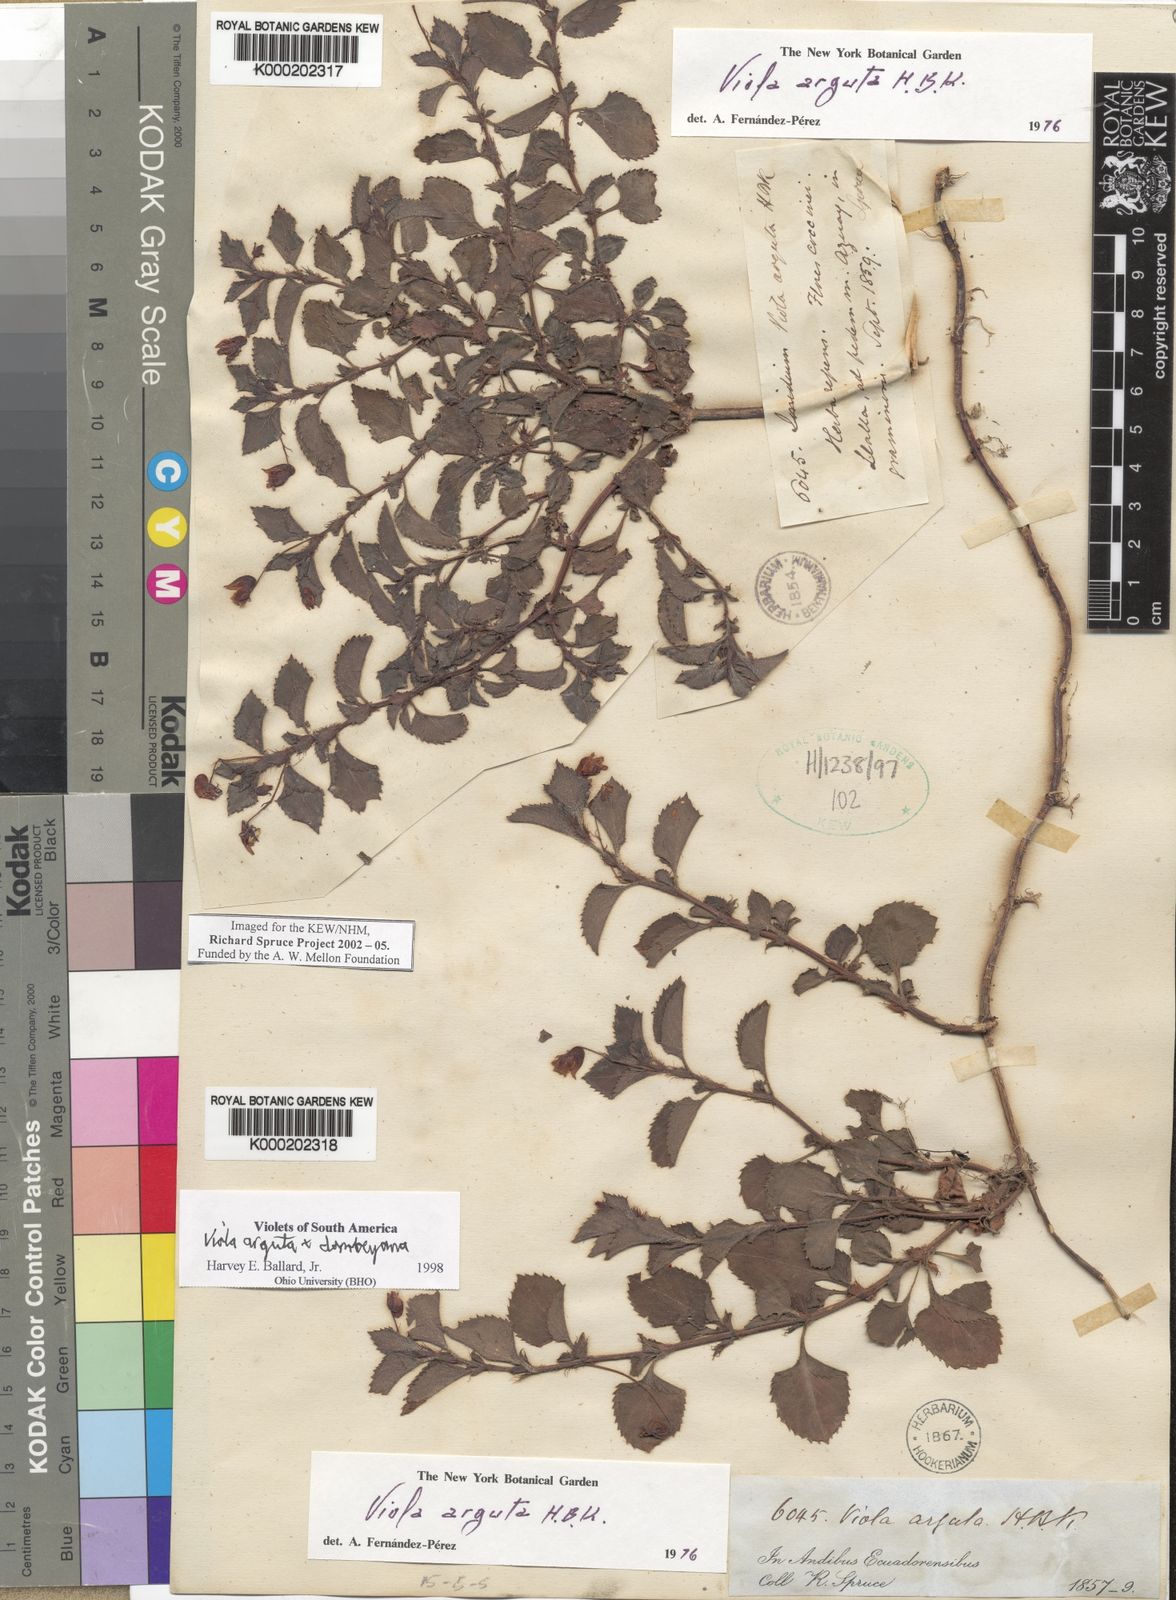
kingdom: Plantae
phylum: Tracheophyta
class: Magnoliopsida
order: Malpighiales
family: Violaceae
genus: Viola
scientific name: Viola
